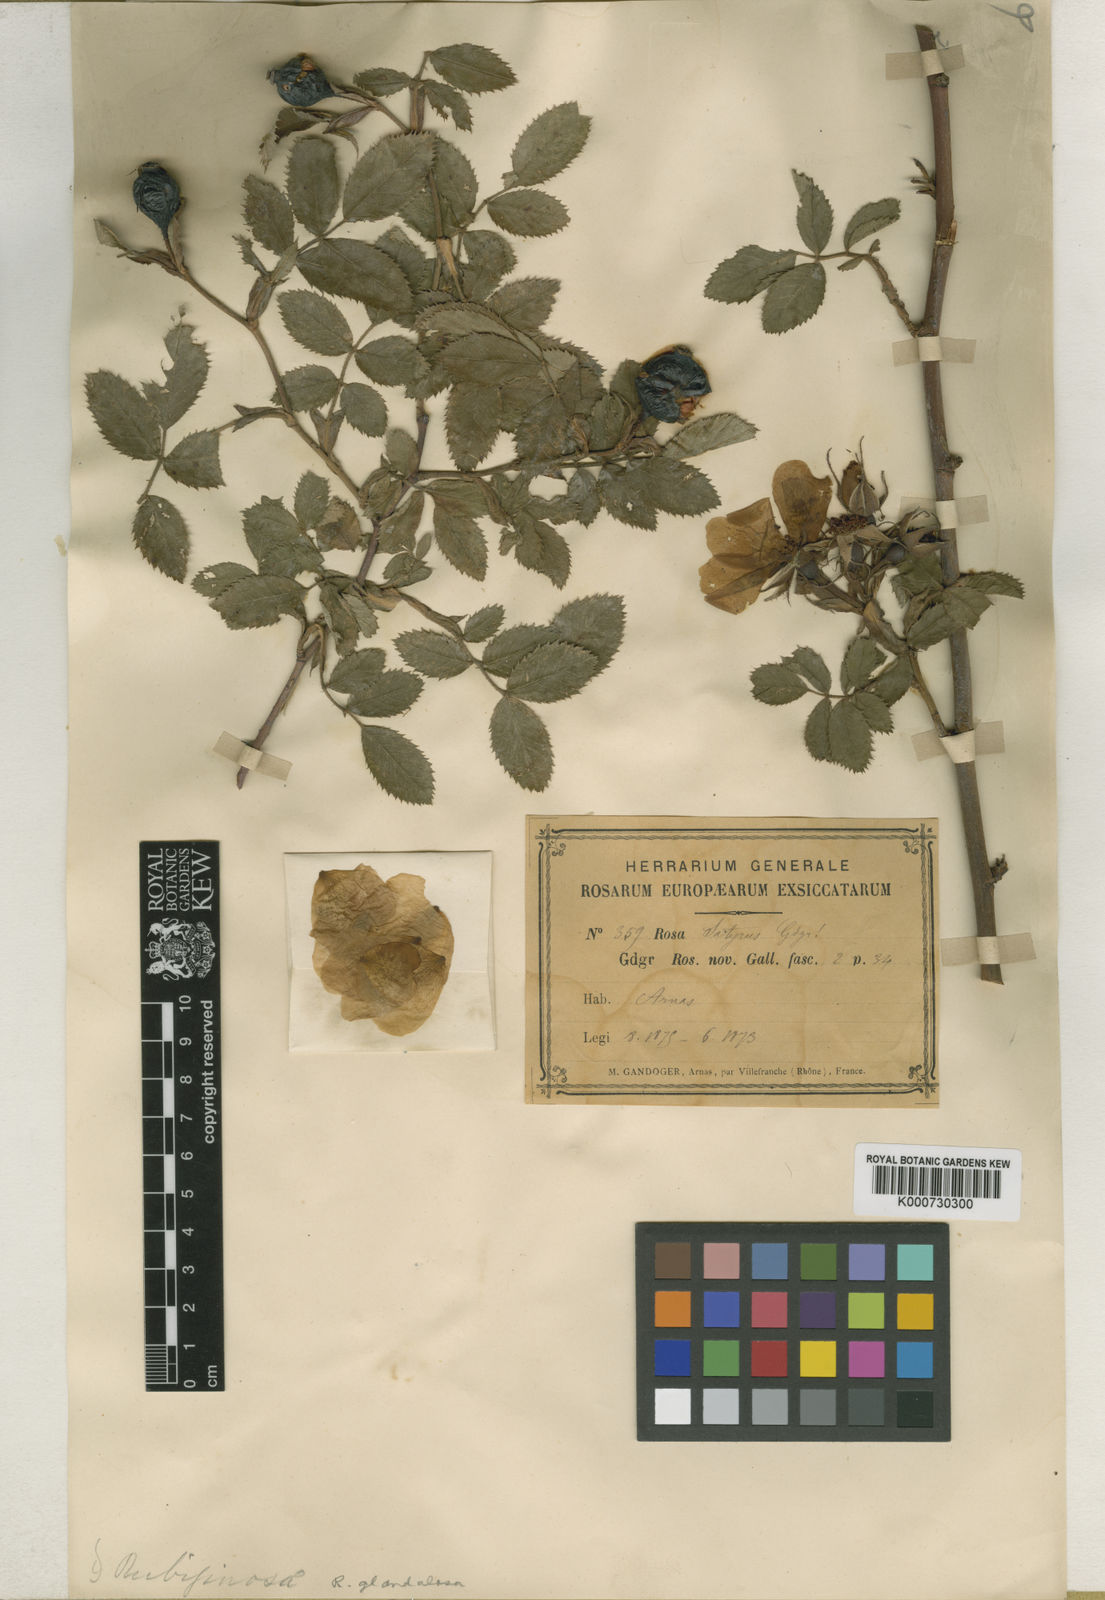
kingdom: Plantae
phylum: Tracheophyta
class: Magnoliopsida
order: Rosales
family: Rosaceae
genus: Rosa
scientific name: Rosa marginata
